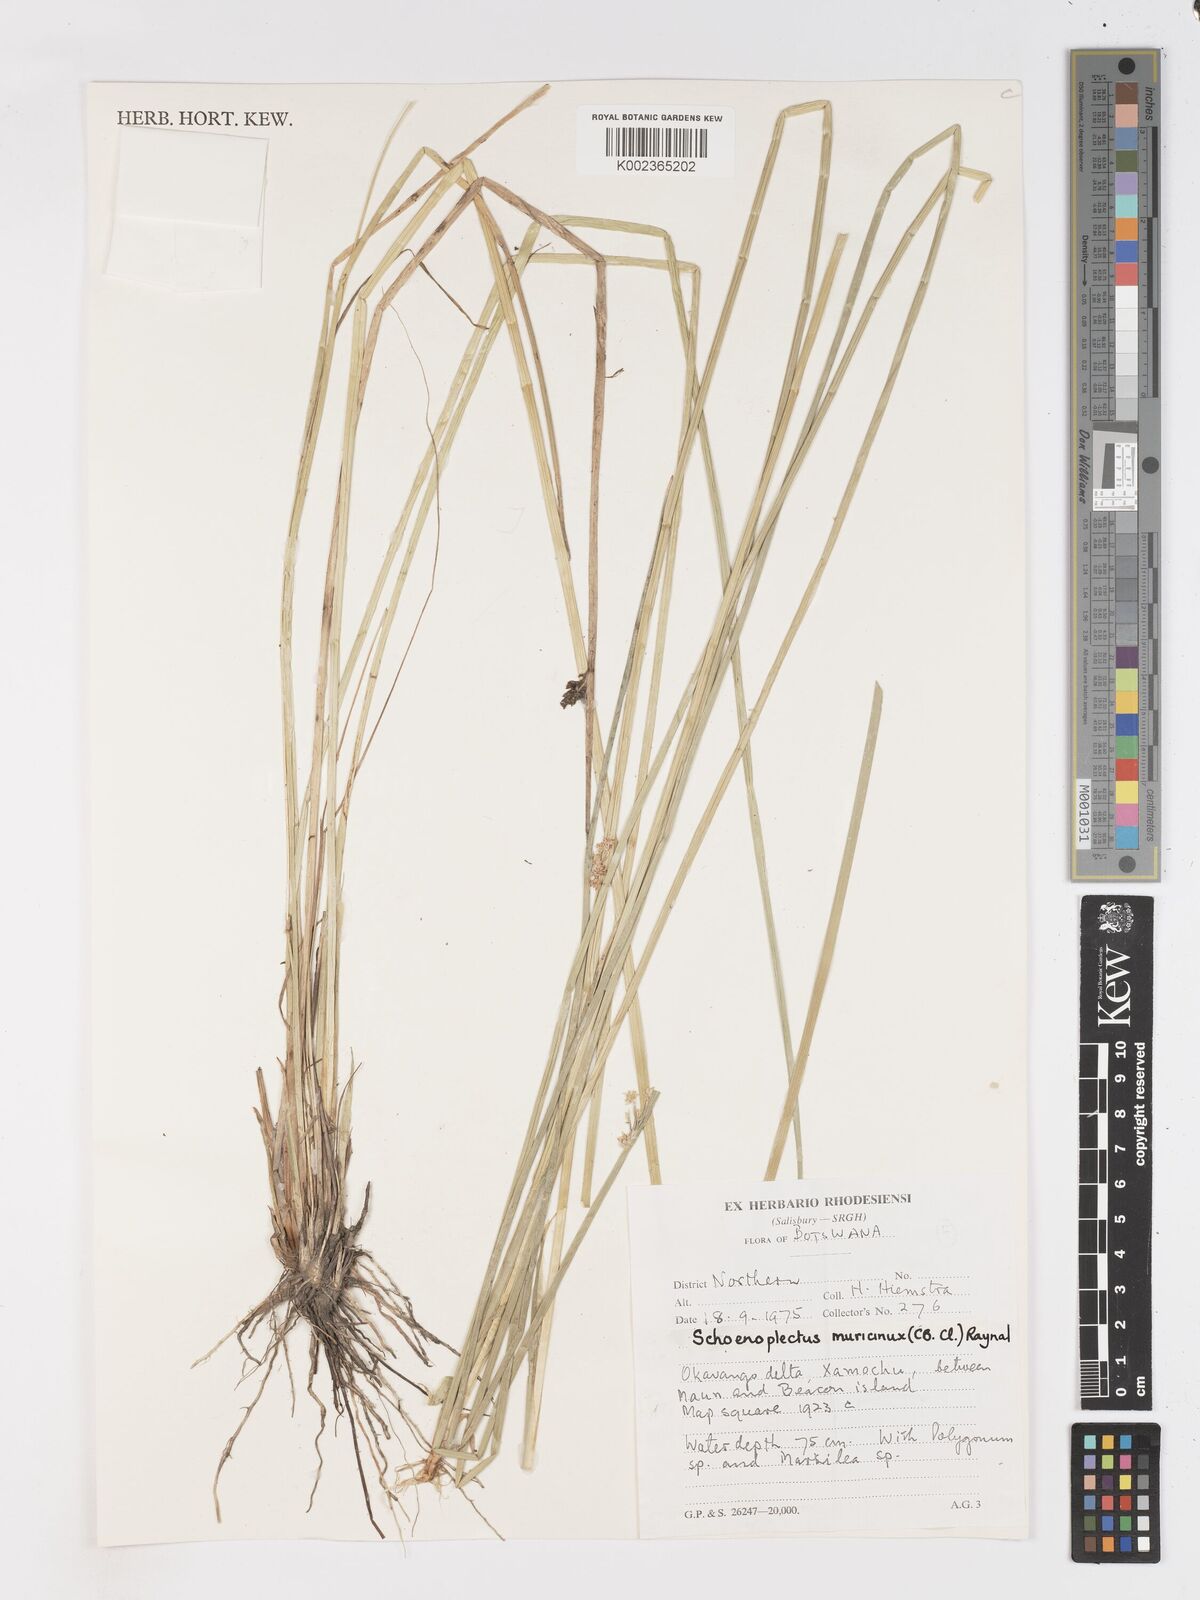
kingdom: Plantae
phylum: Tracheophyta
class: Liliopsida
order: Poales
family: Cyperaceae
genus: Schoenoplectiella
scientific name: Schoenoplectiella muricinux
